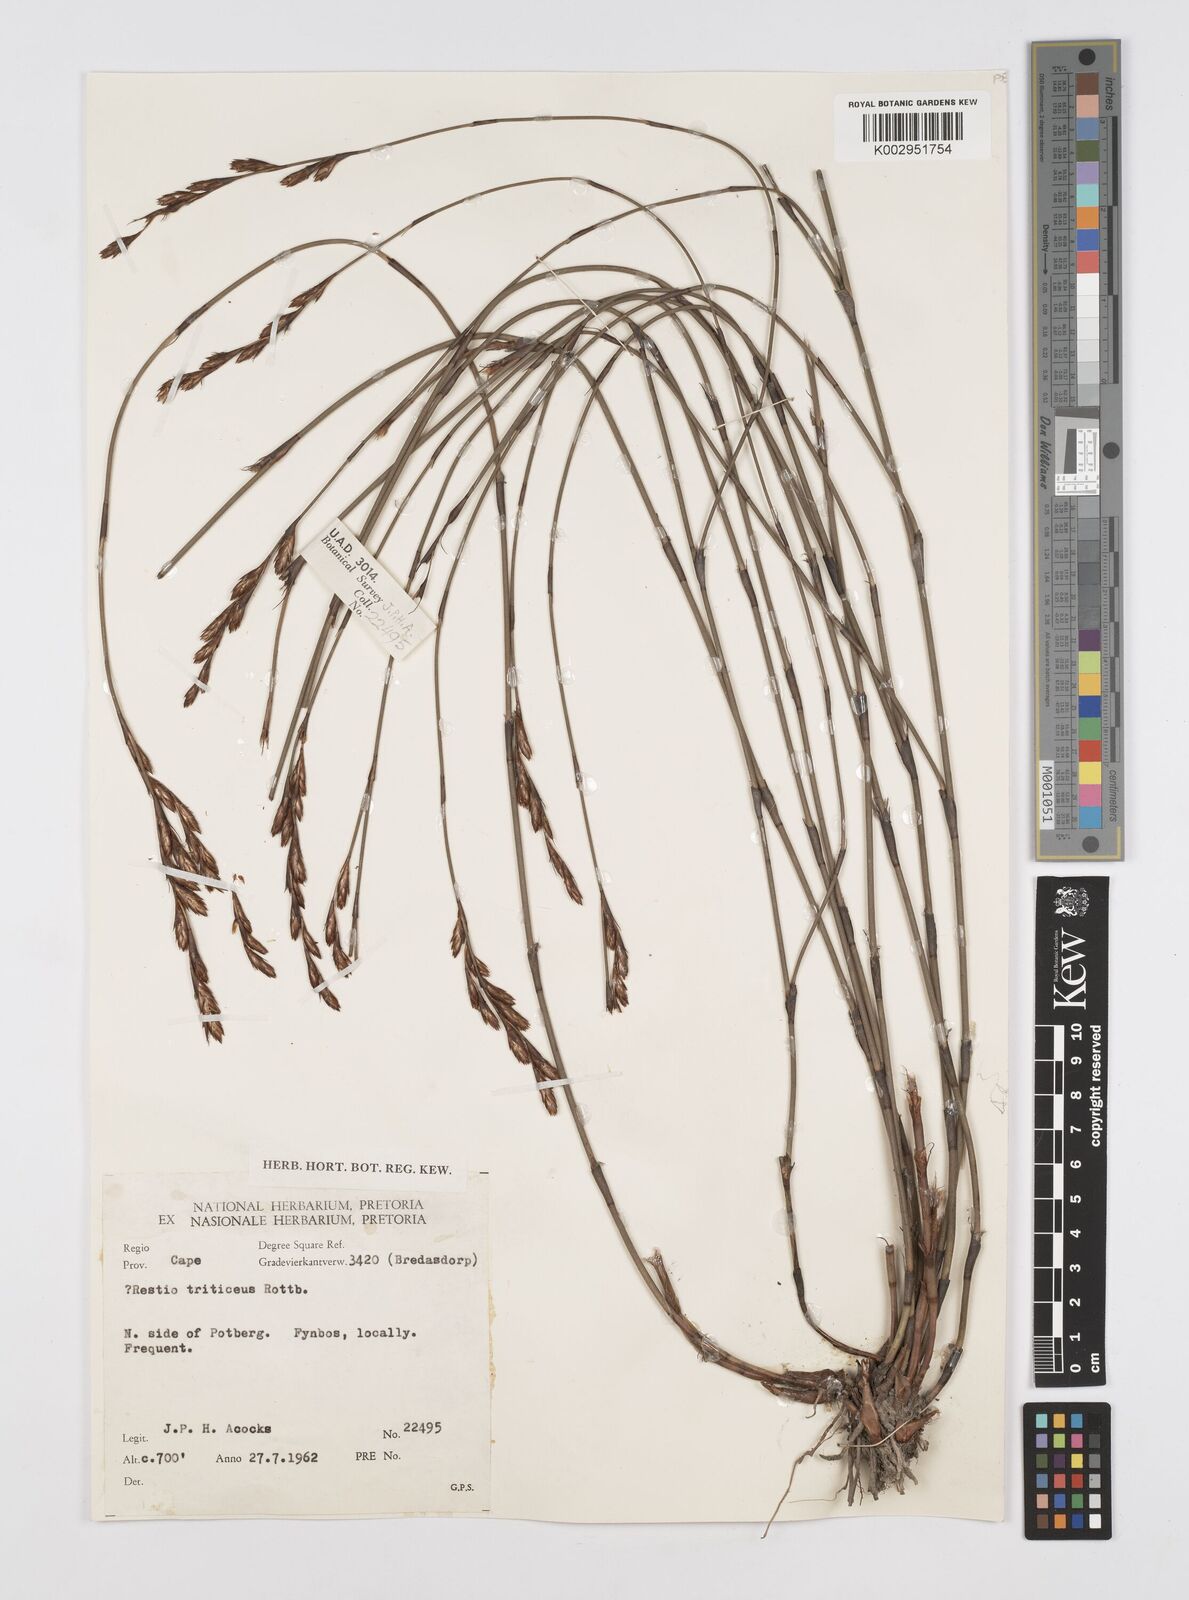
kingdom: Plantae
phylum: Tracheophyta
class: Liliopsida
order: Poales
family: Restionaceae
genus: Restio
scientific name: Restio triticeus
